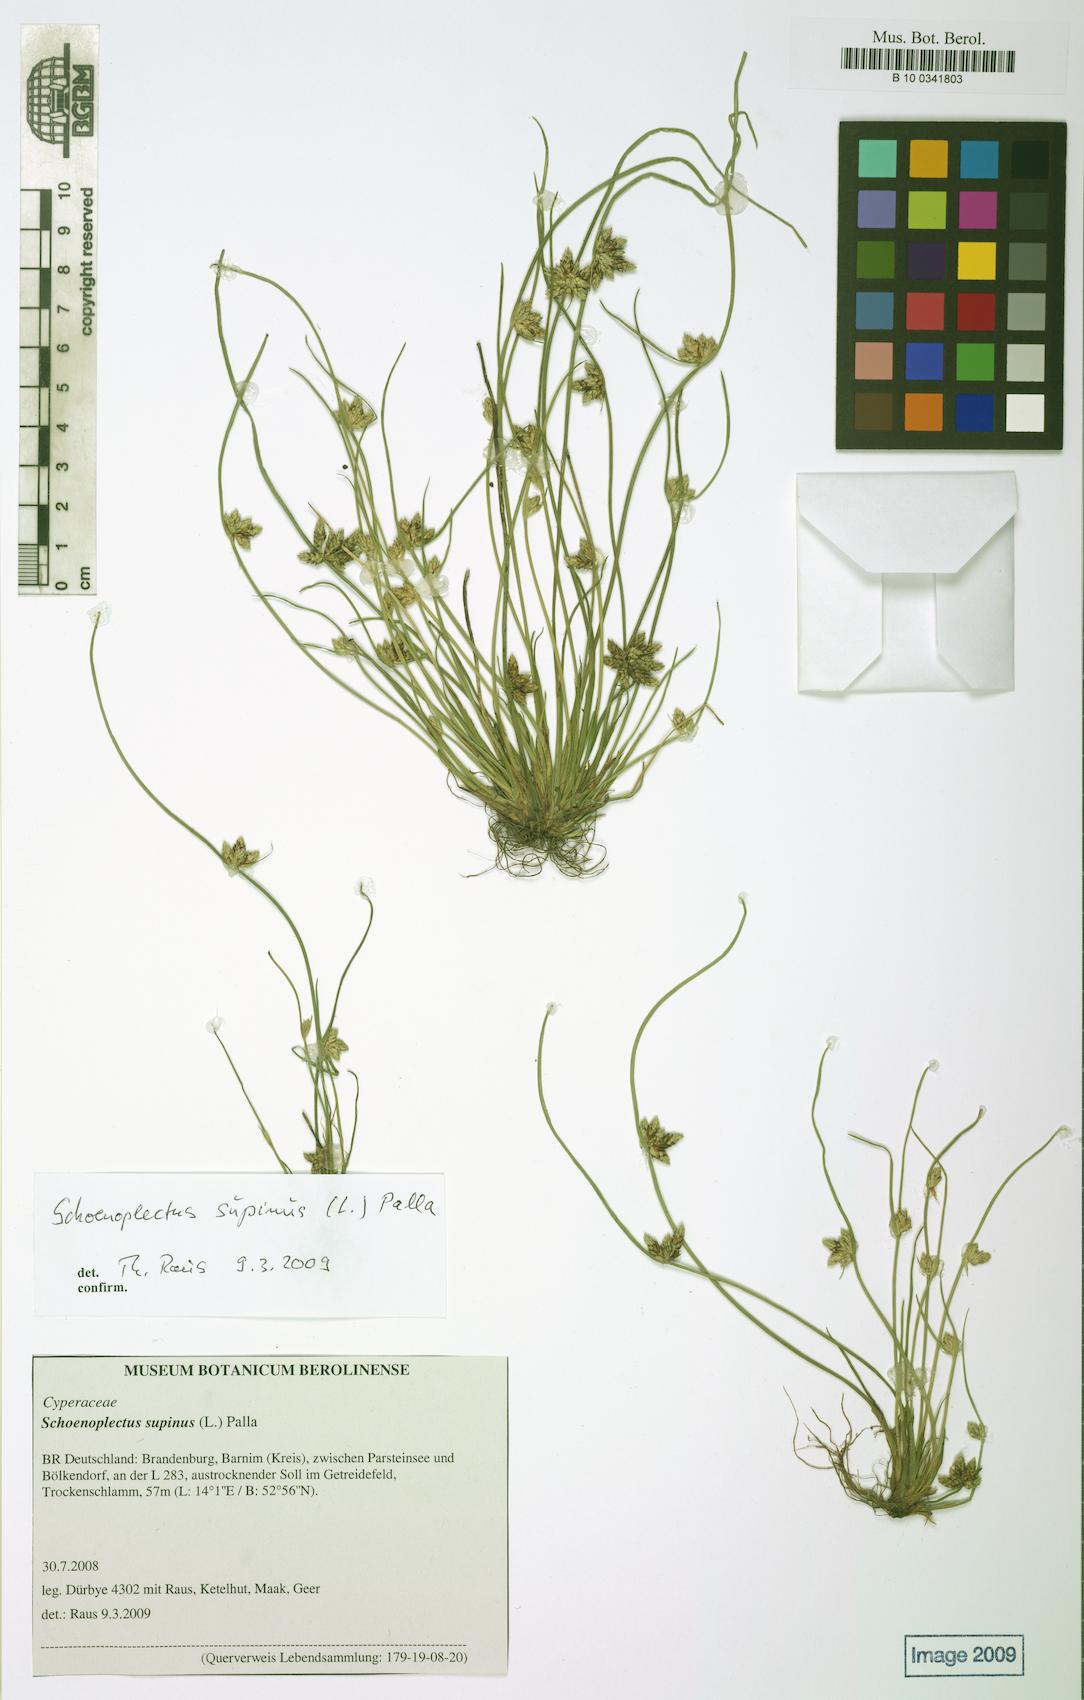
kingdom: Plantae
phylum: Tracheophyta
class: Liliopsida
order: Poales
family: Cyperaceae
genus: Schoenoplectiella
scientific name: Schoenoplectiella supina
